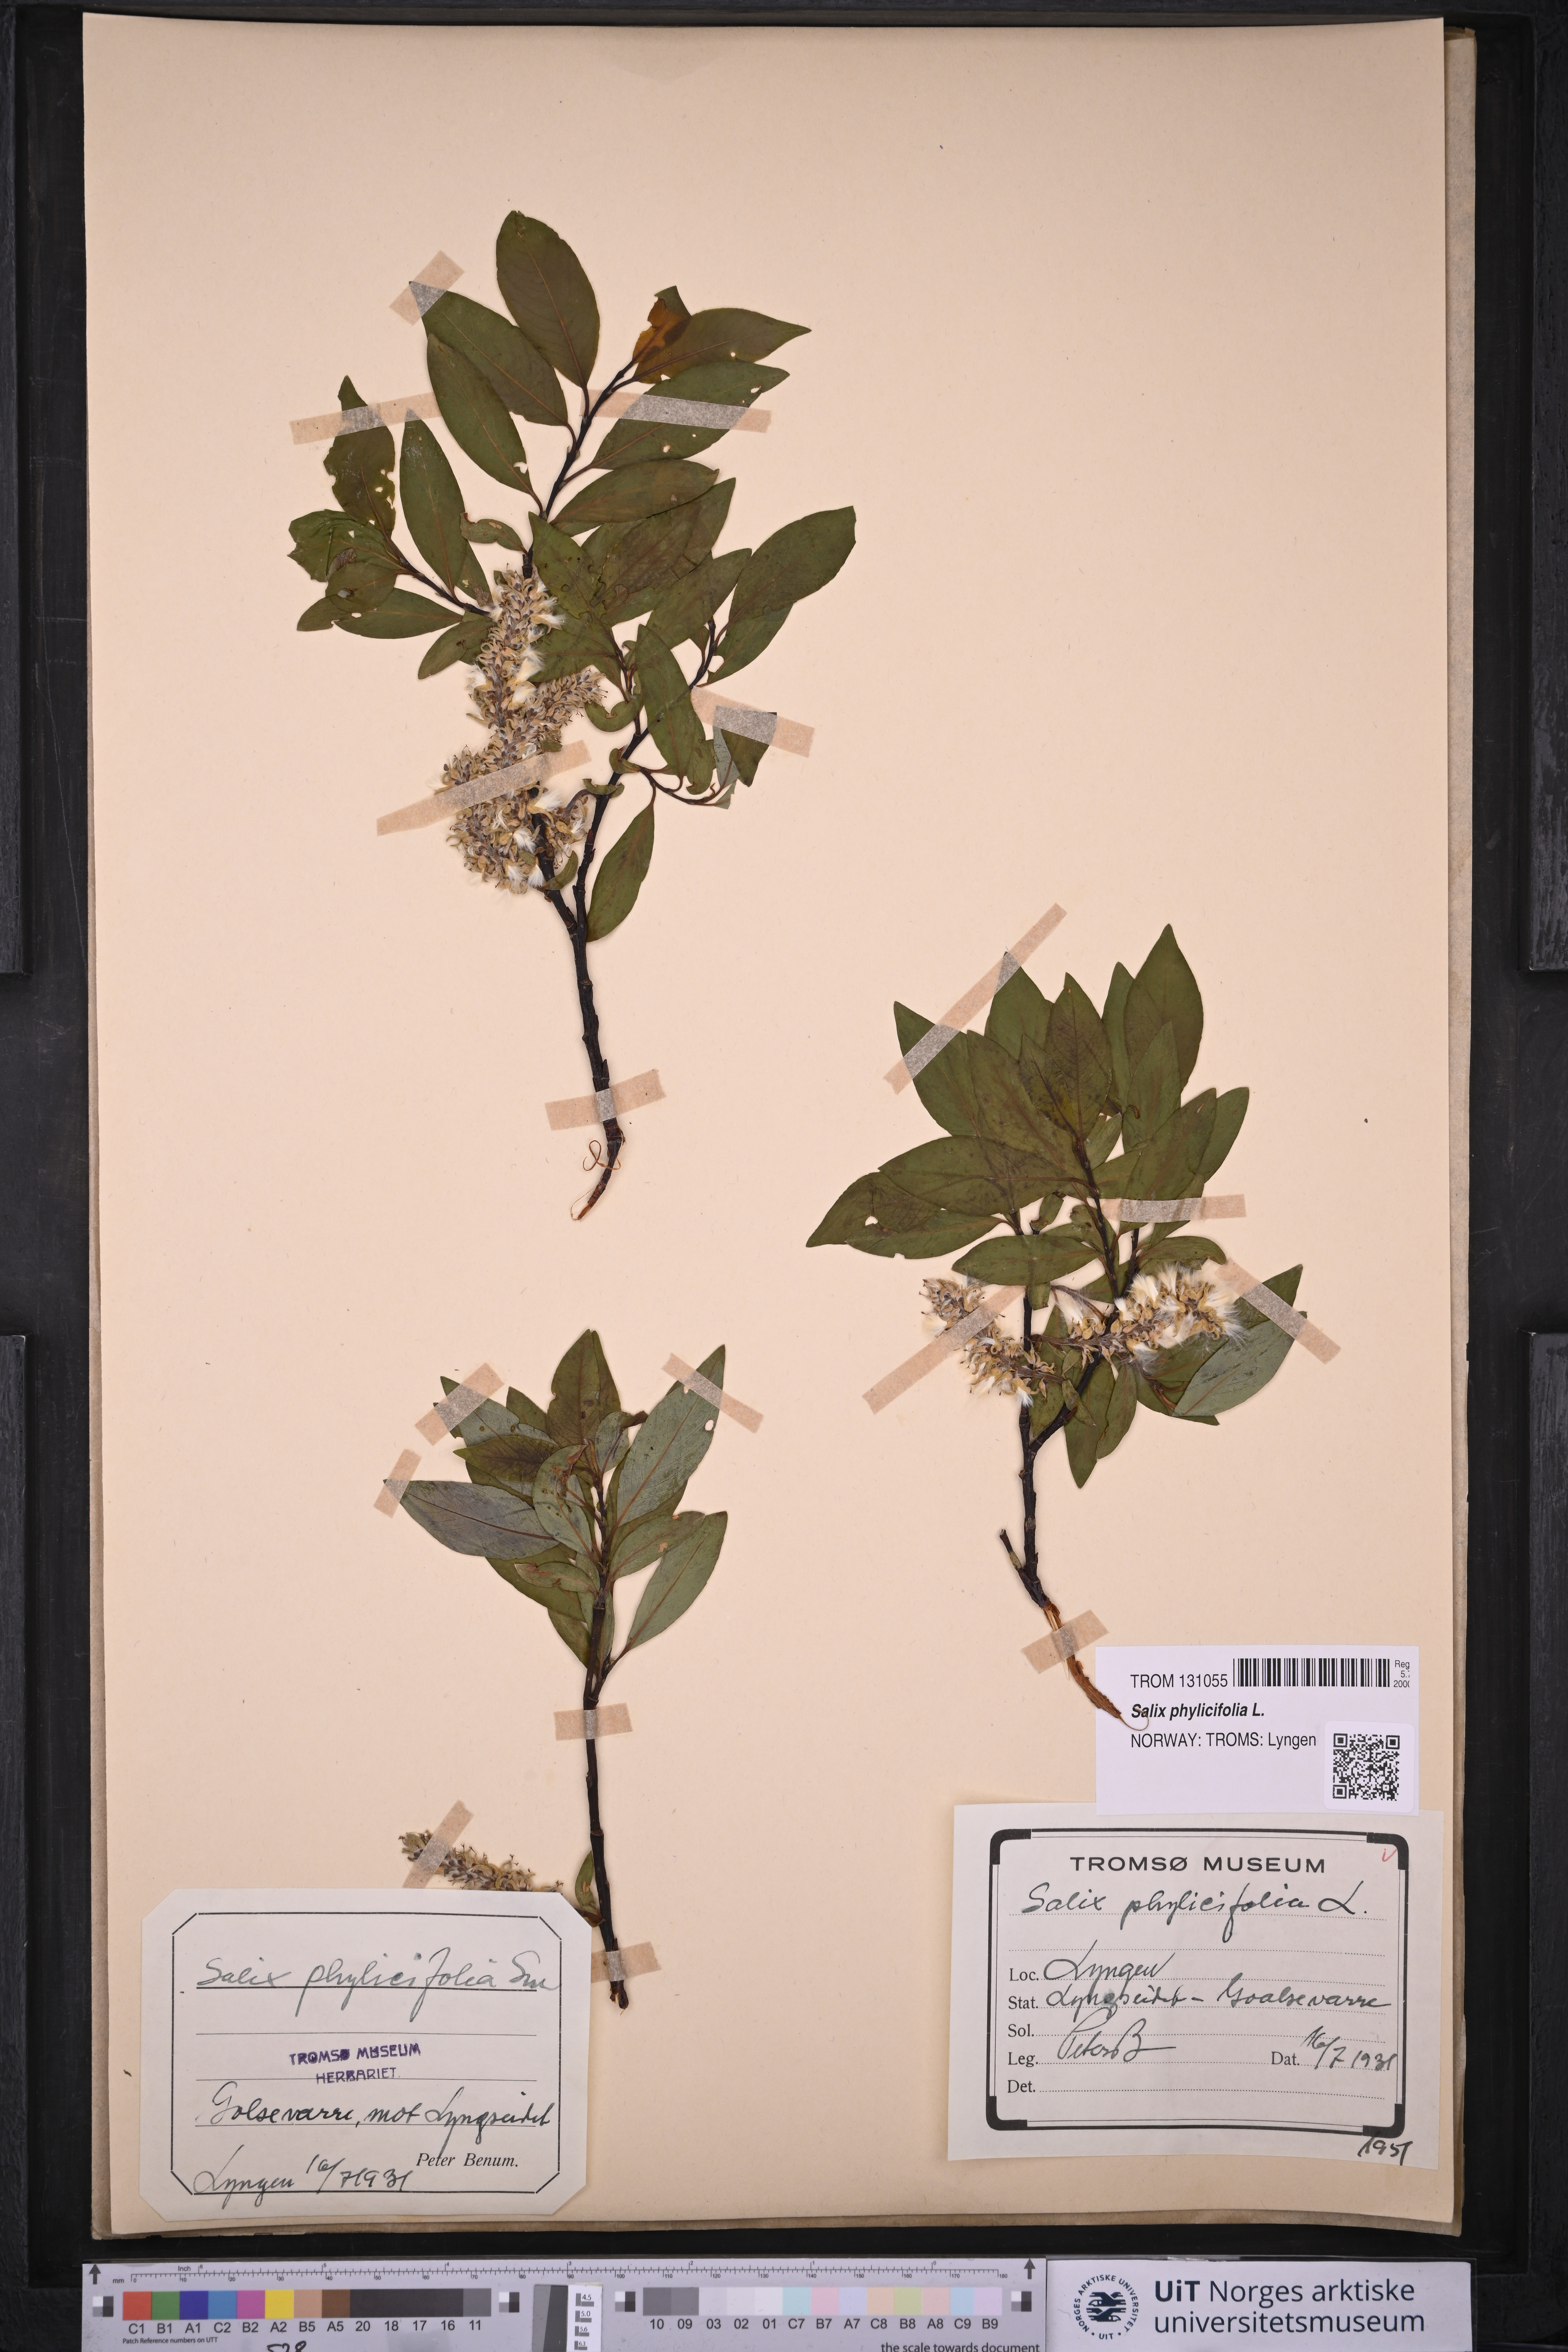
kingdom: Plantae
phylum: Tracheophyta
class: Magnoliopsida
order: Malpighiales
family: Salicaceae
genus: Salix
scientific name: Salix phylicifolia
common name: Tea-leaved willow
